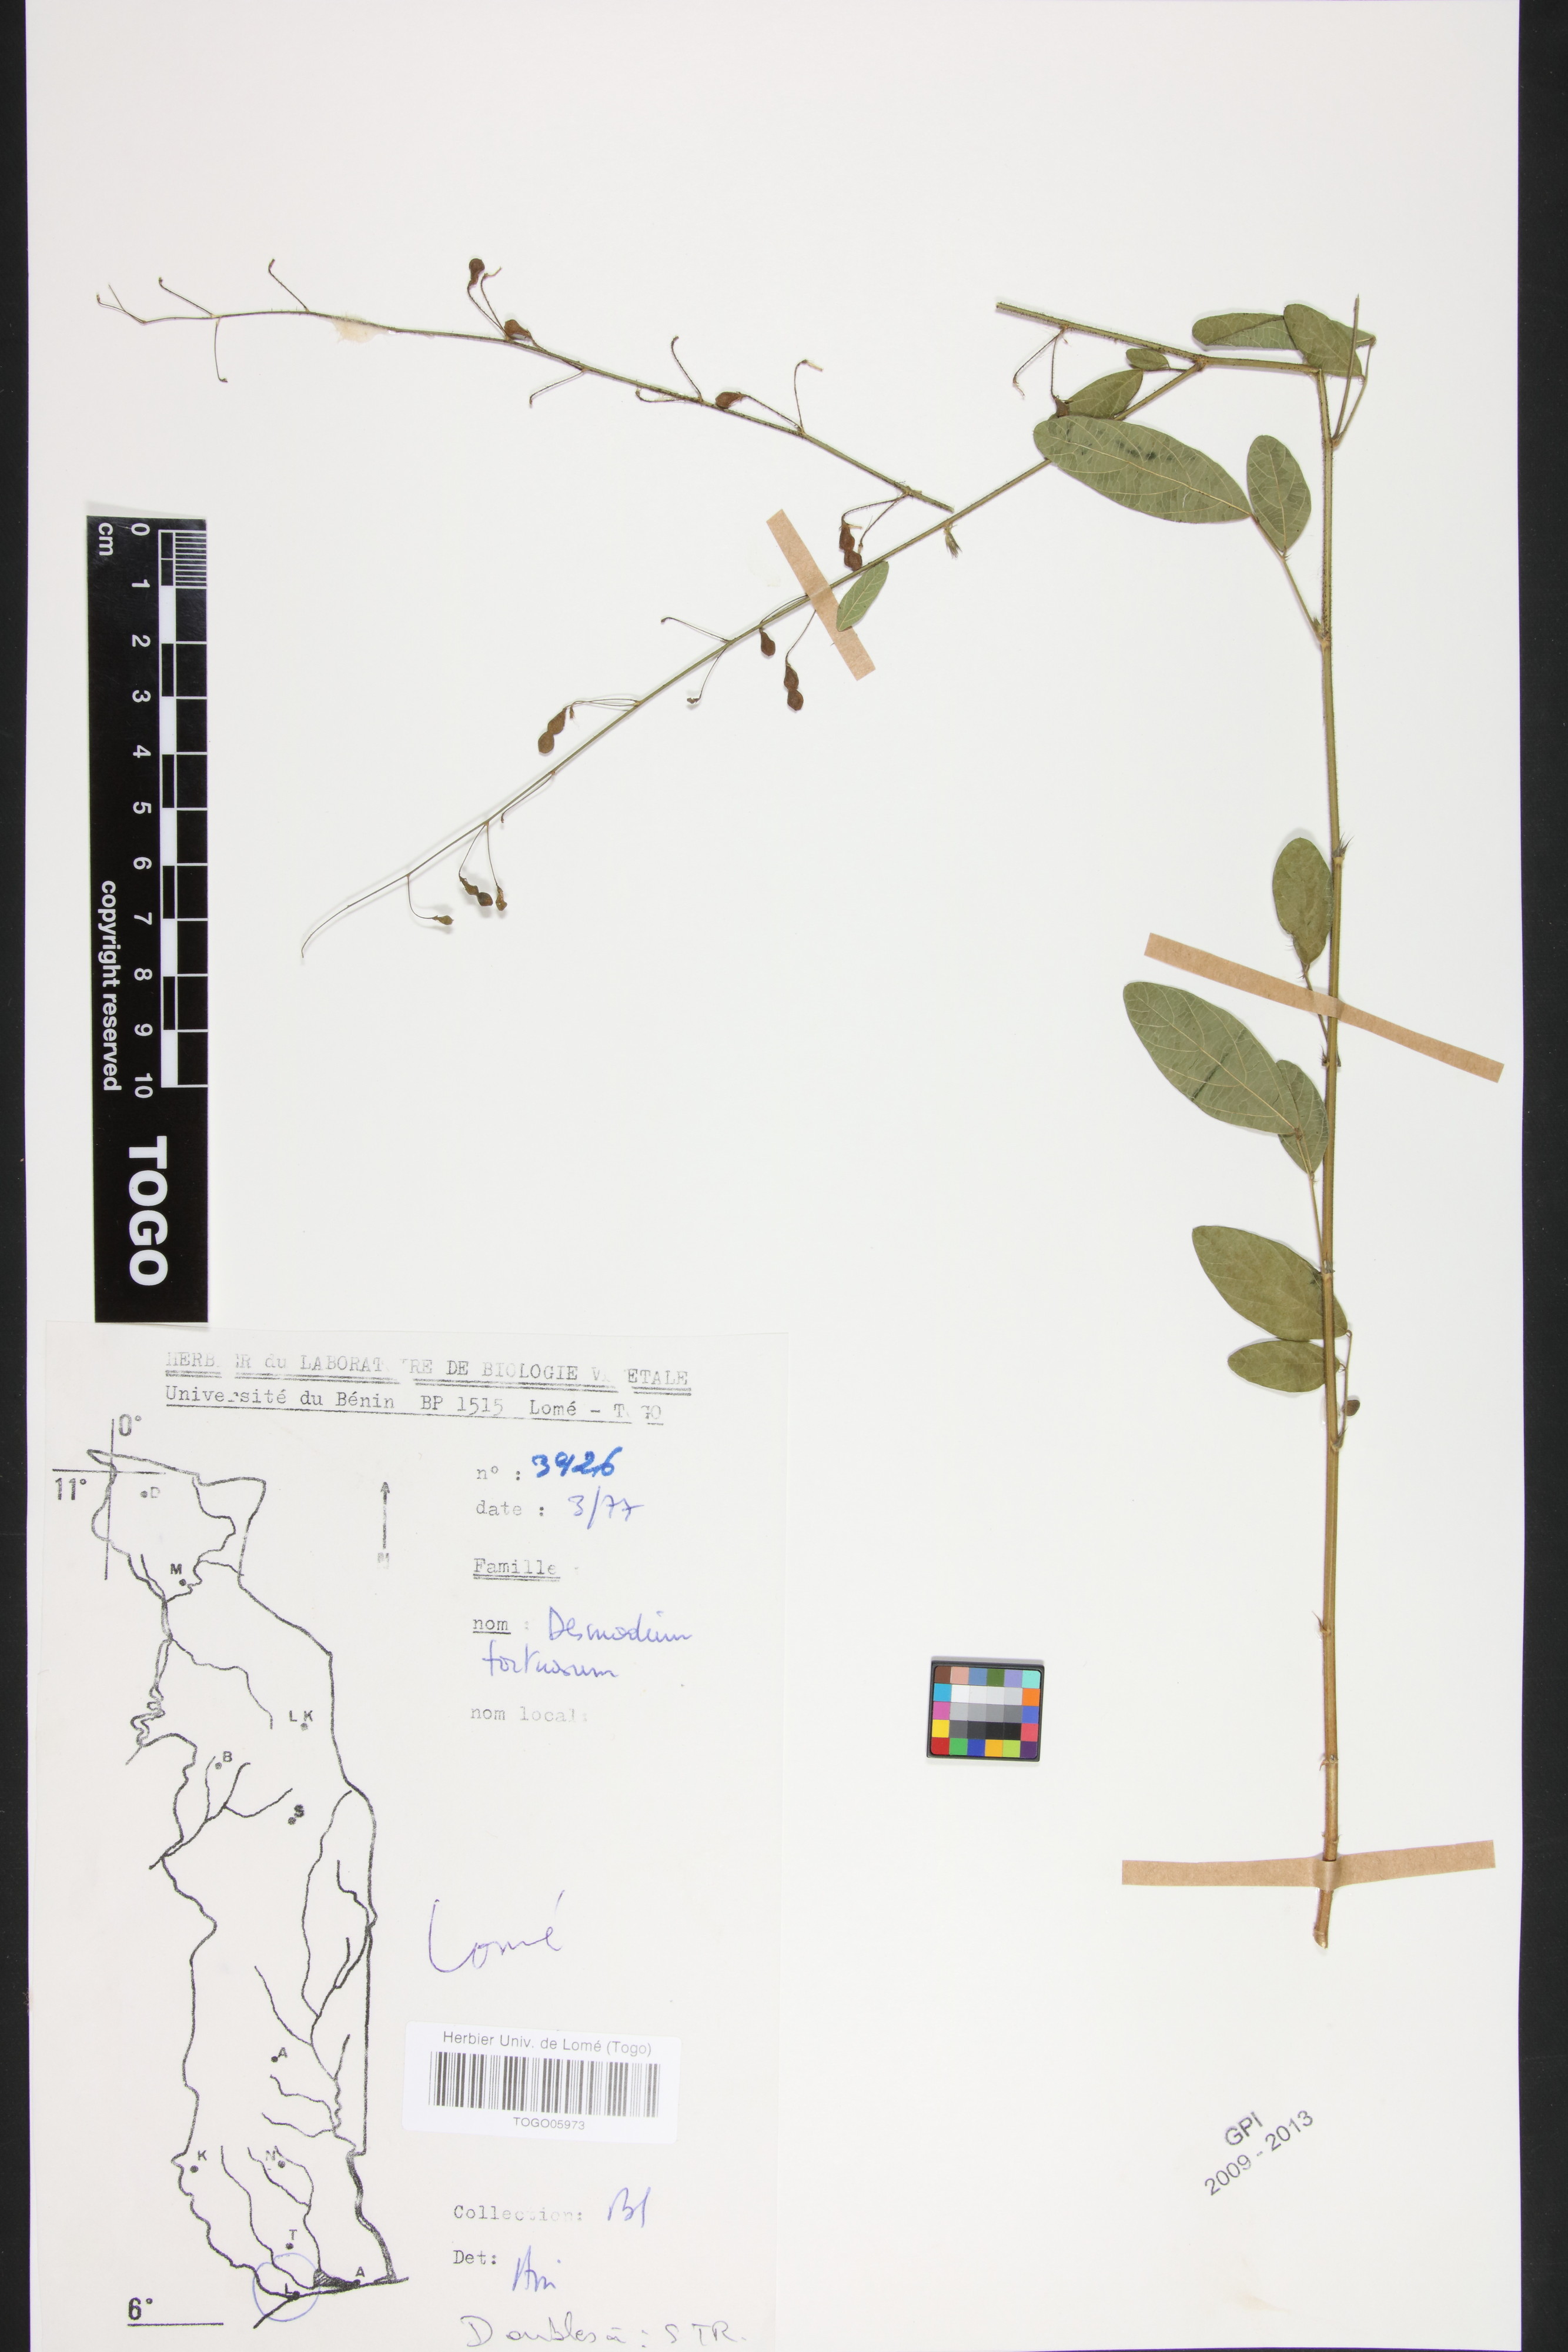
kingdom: Plantae
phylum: Tracheophyta
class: Magnoliopsida
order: Fabales
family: Fabaceae
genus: Desmodium
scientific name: Desmodium tortuosum
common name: Dixie ticktrefoil
